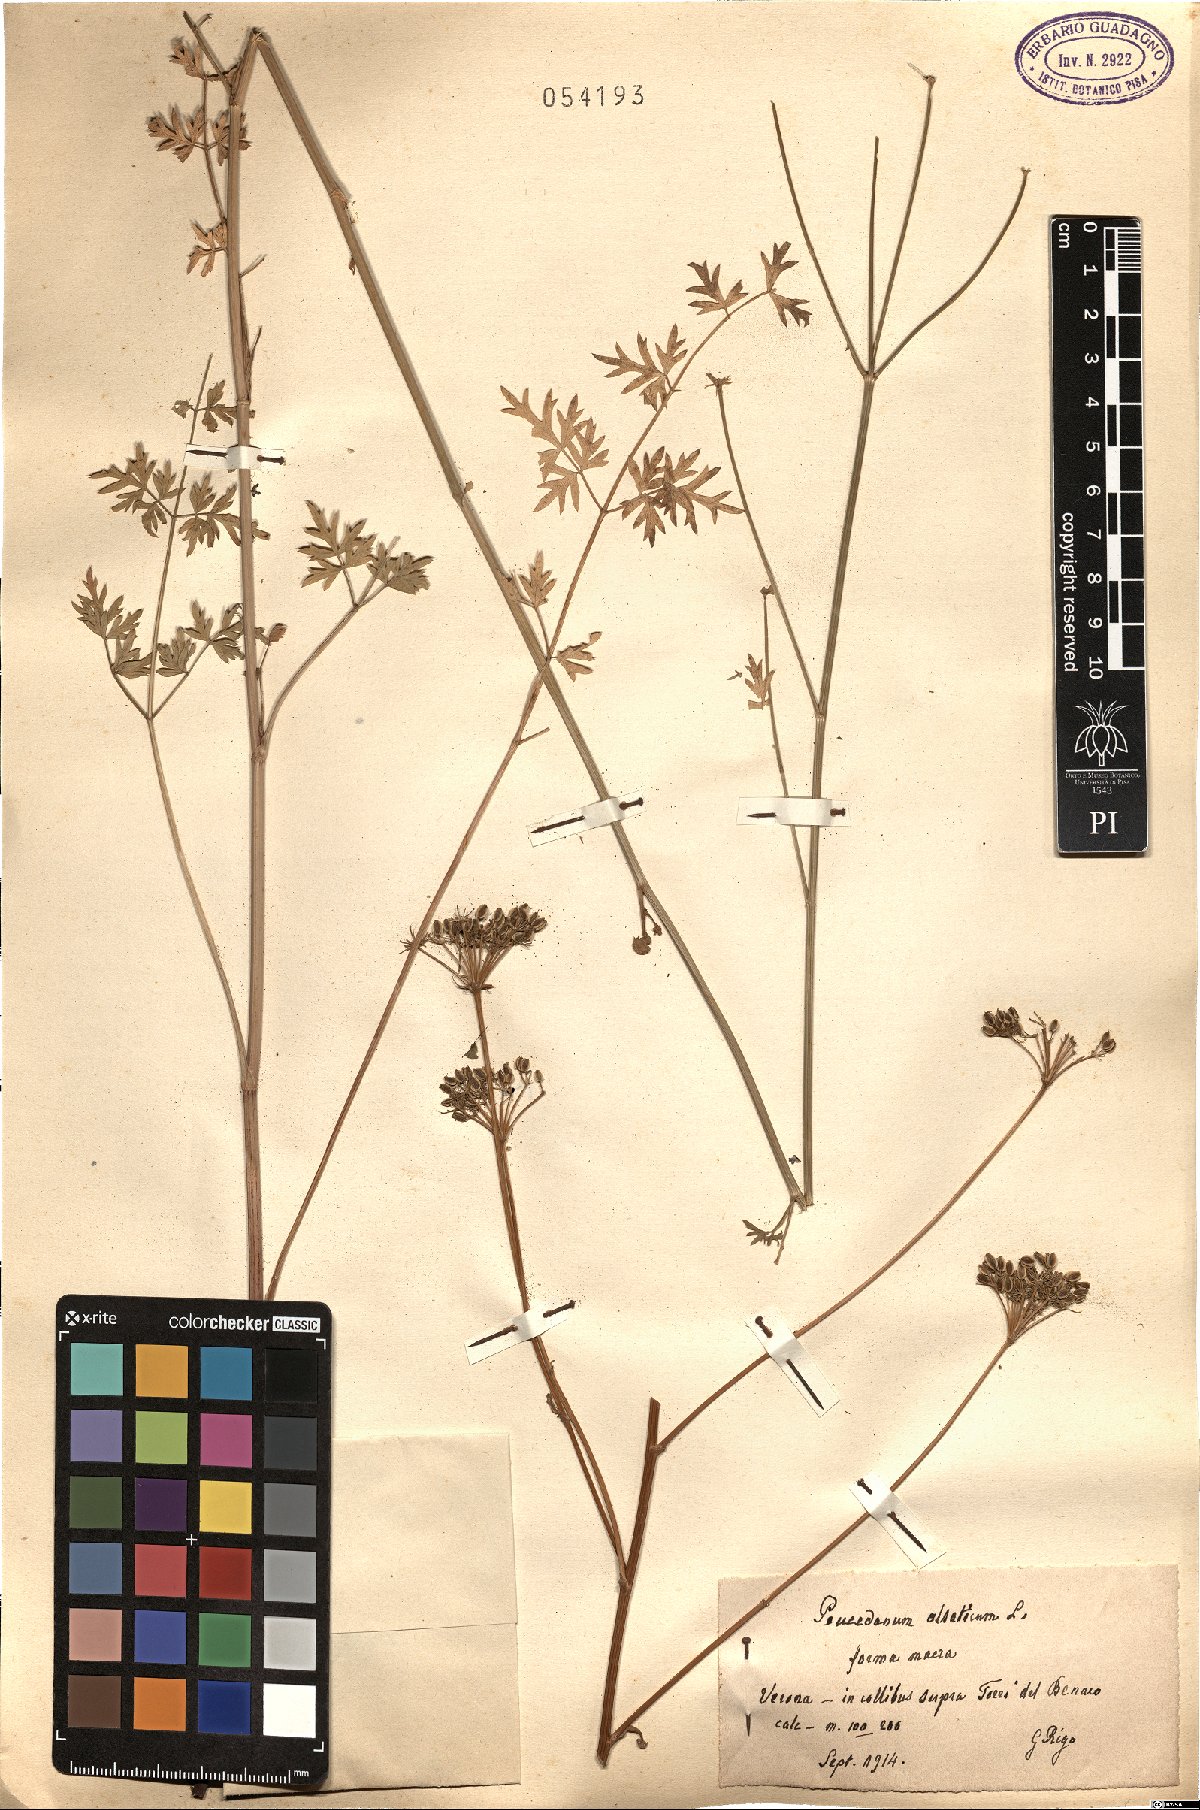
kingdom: Plantae
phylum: Tracheophyta
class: Magnoliopsida
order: Apiales
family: Apiaceae
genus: Xanthoselinum
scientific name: Xanthoselinum alsaticum
